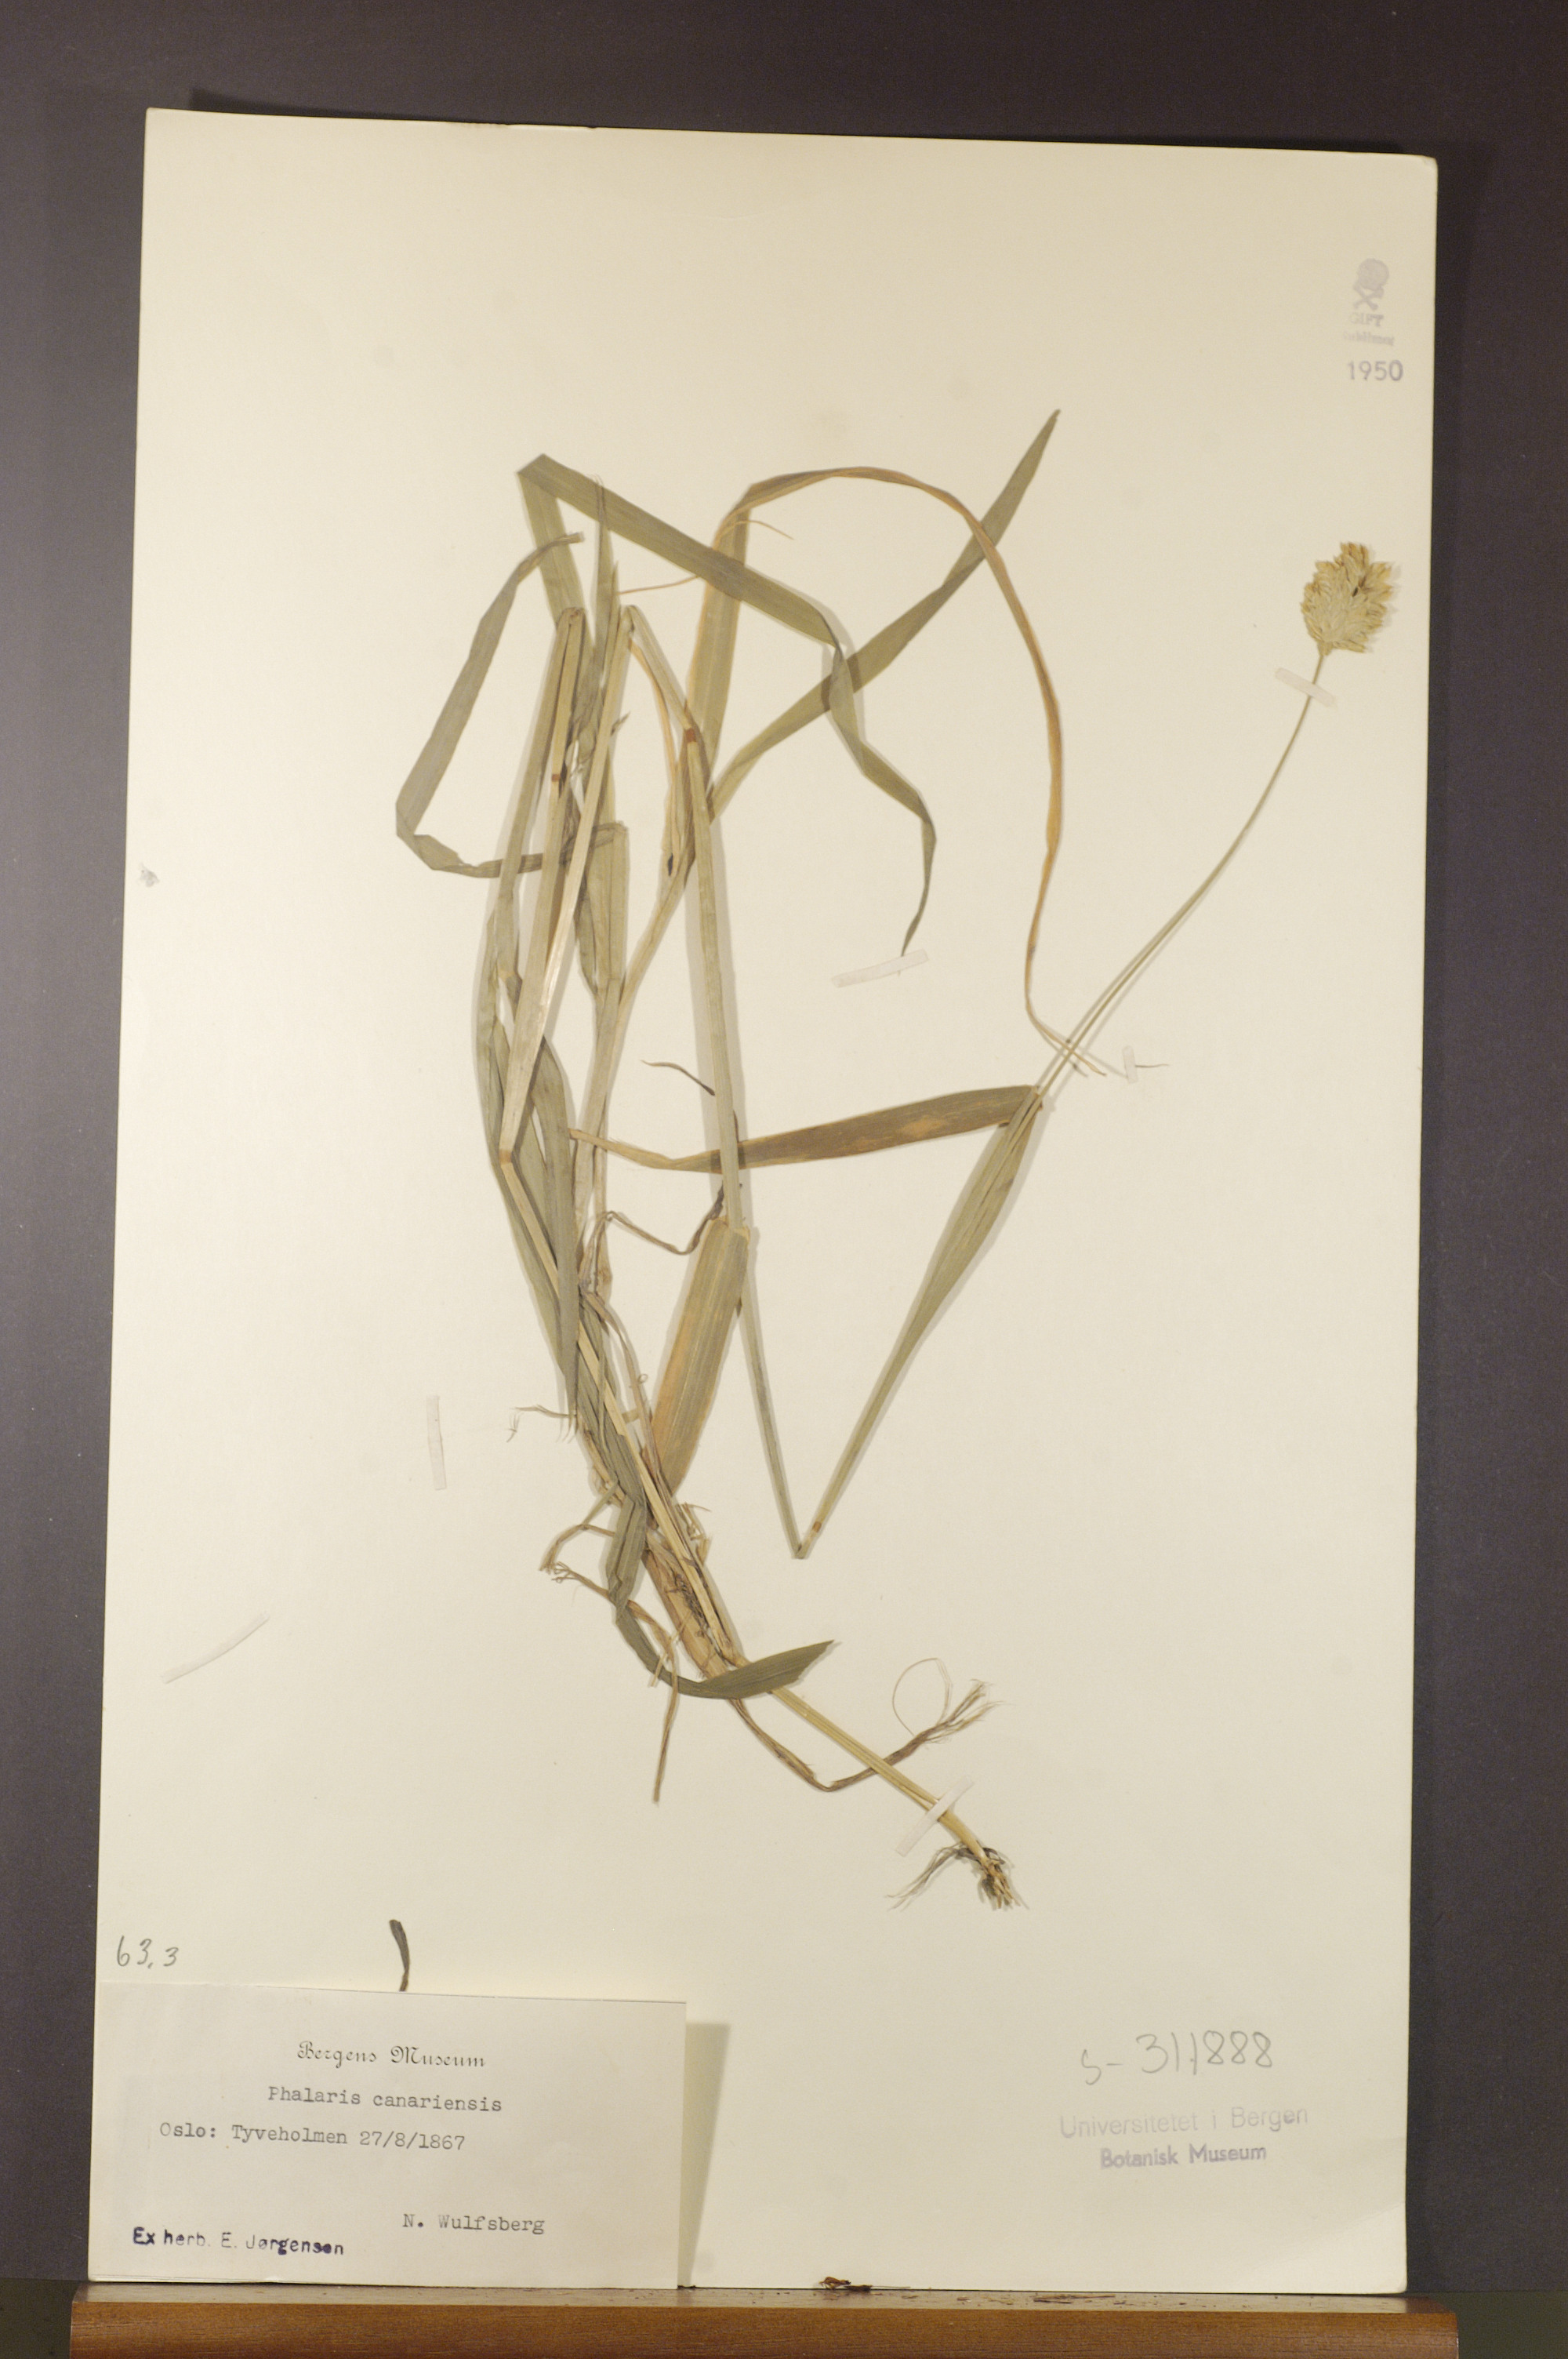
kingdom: Plantae
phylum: Tracheophyta
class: Liliopsida
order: Poales
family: Poaceae
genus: Phalaris
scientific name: Phalaris canariensis
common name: Annual canarygrass
